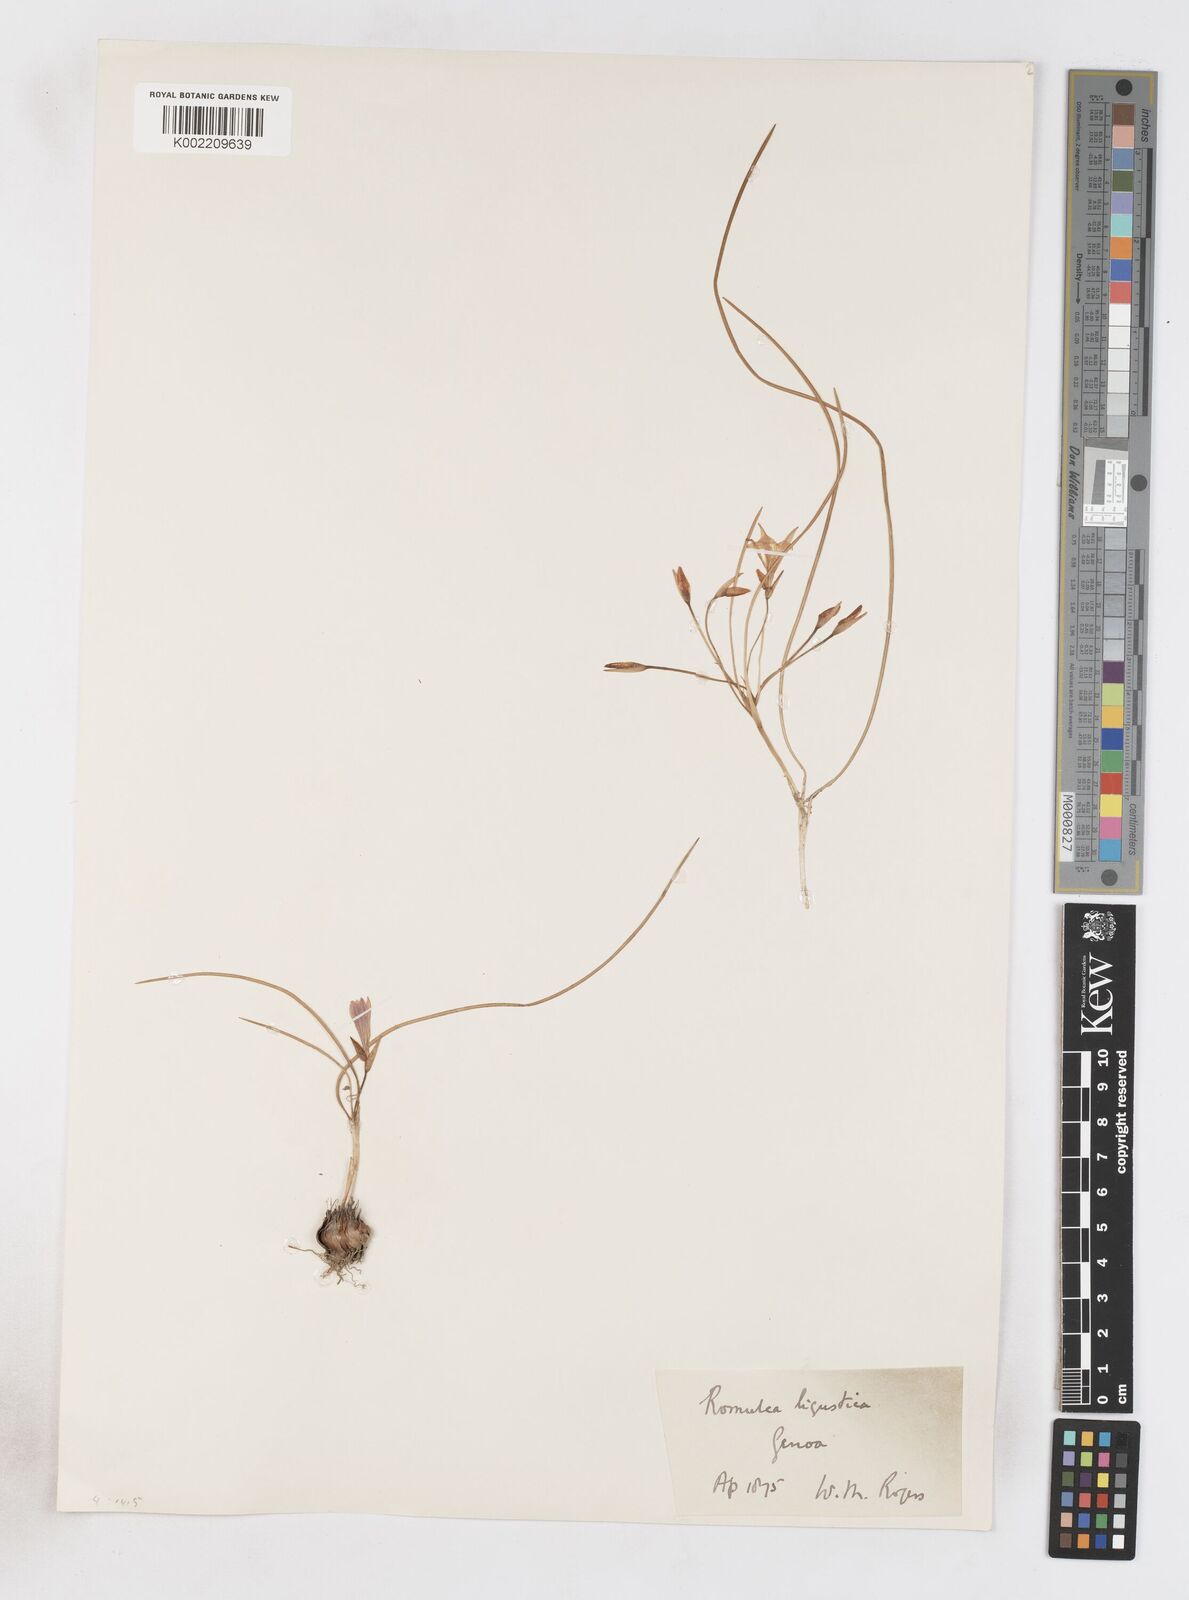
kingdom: Plantae
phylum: Tracheophyta
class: Liliopsida
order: Asparagales
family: Iridaceae
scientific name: Iridaceae
